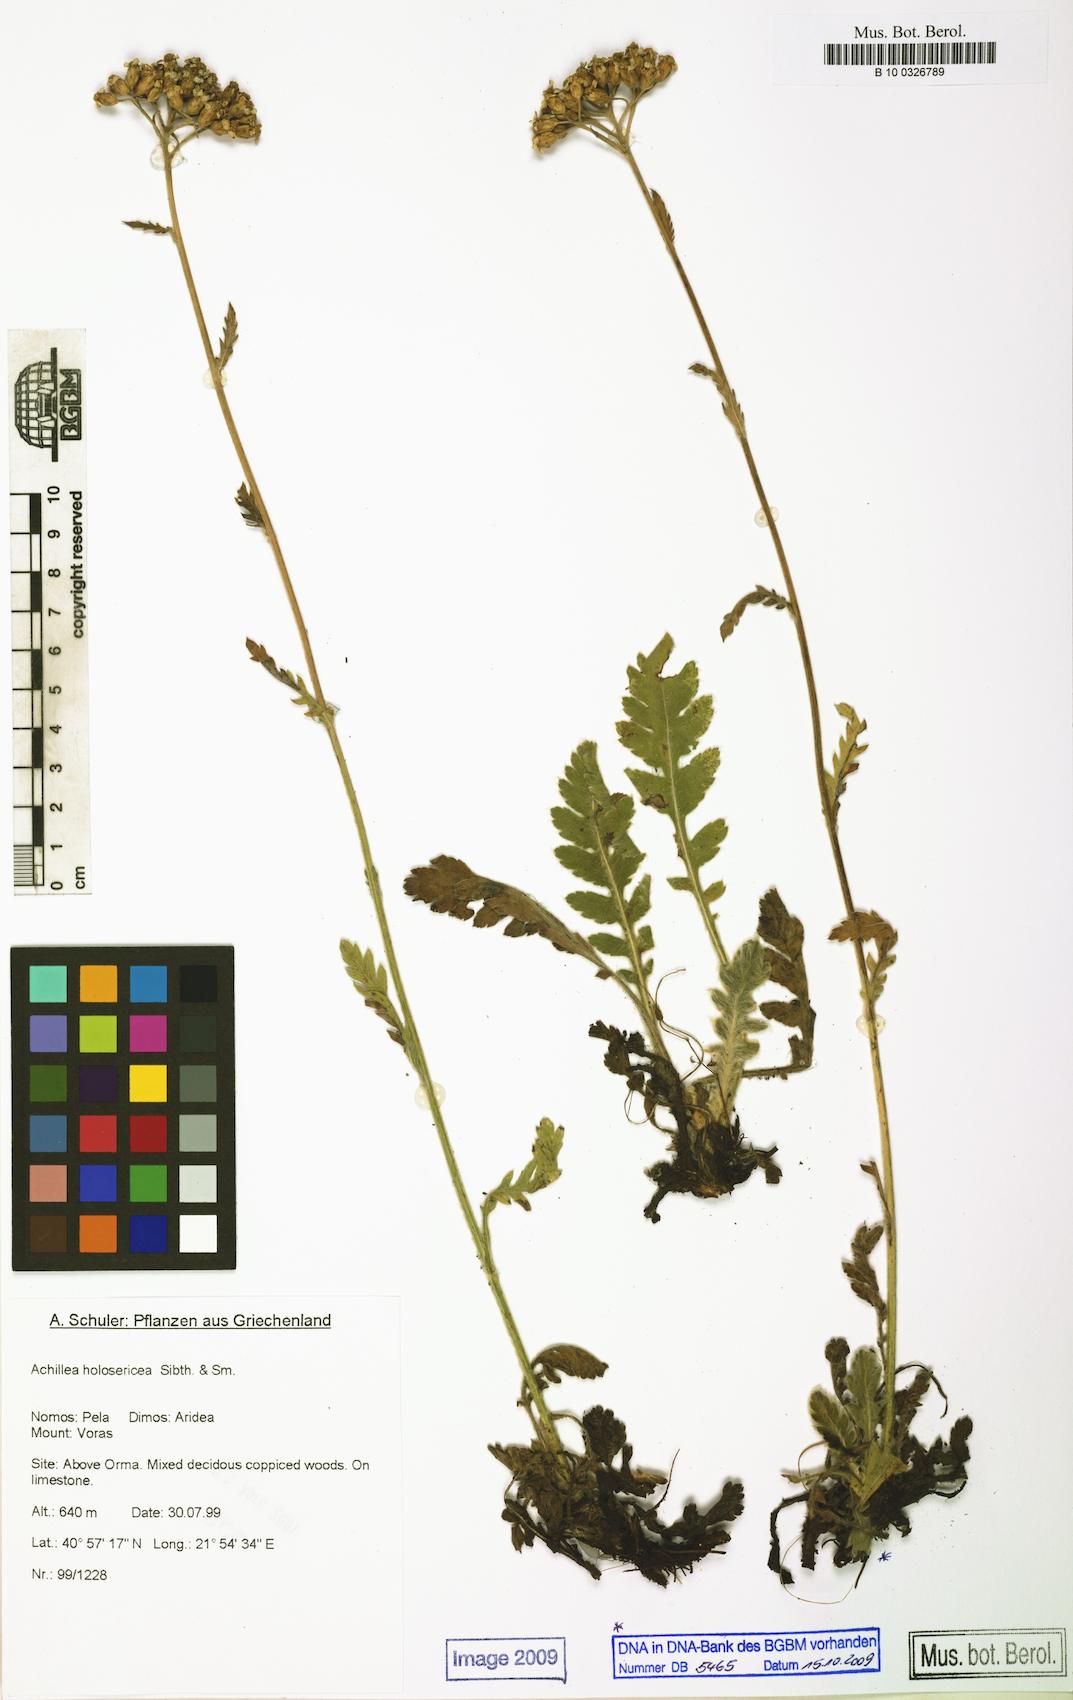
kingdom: Plantae
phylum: Tracheophyta
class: Magnoliopsida
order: Asterales
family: Asteraceae
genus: Achillea
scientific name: Achillea holosericea
